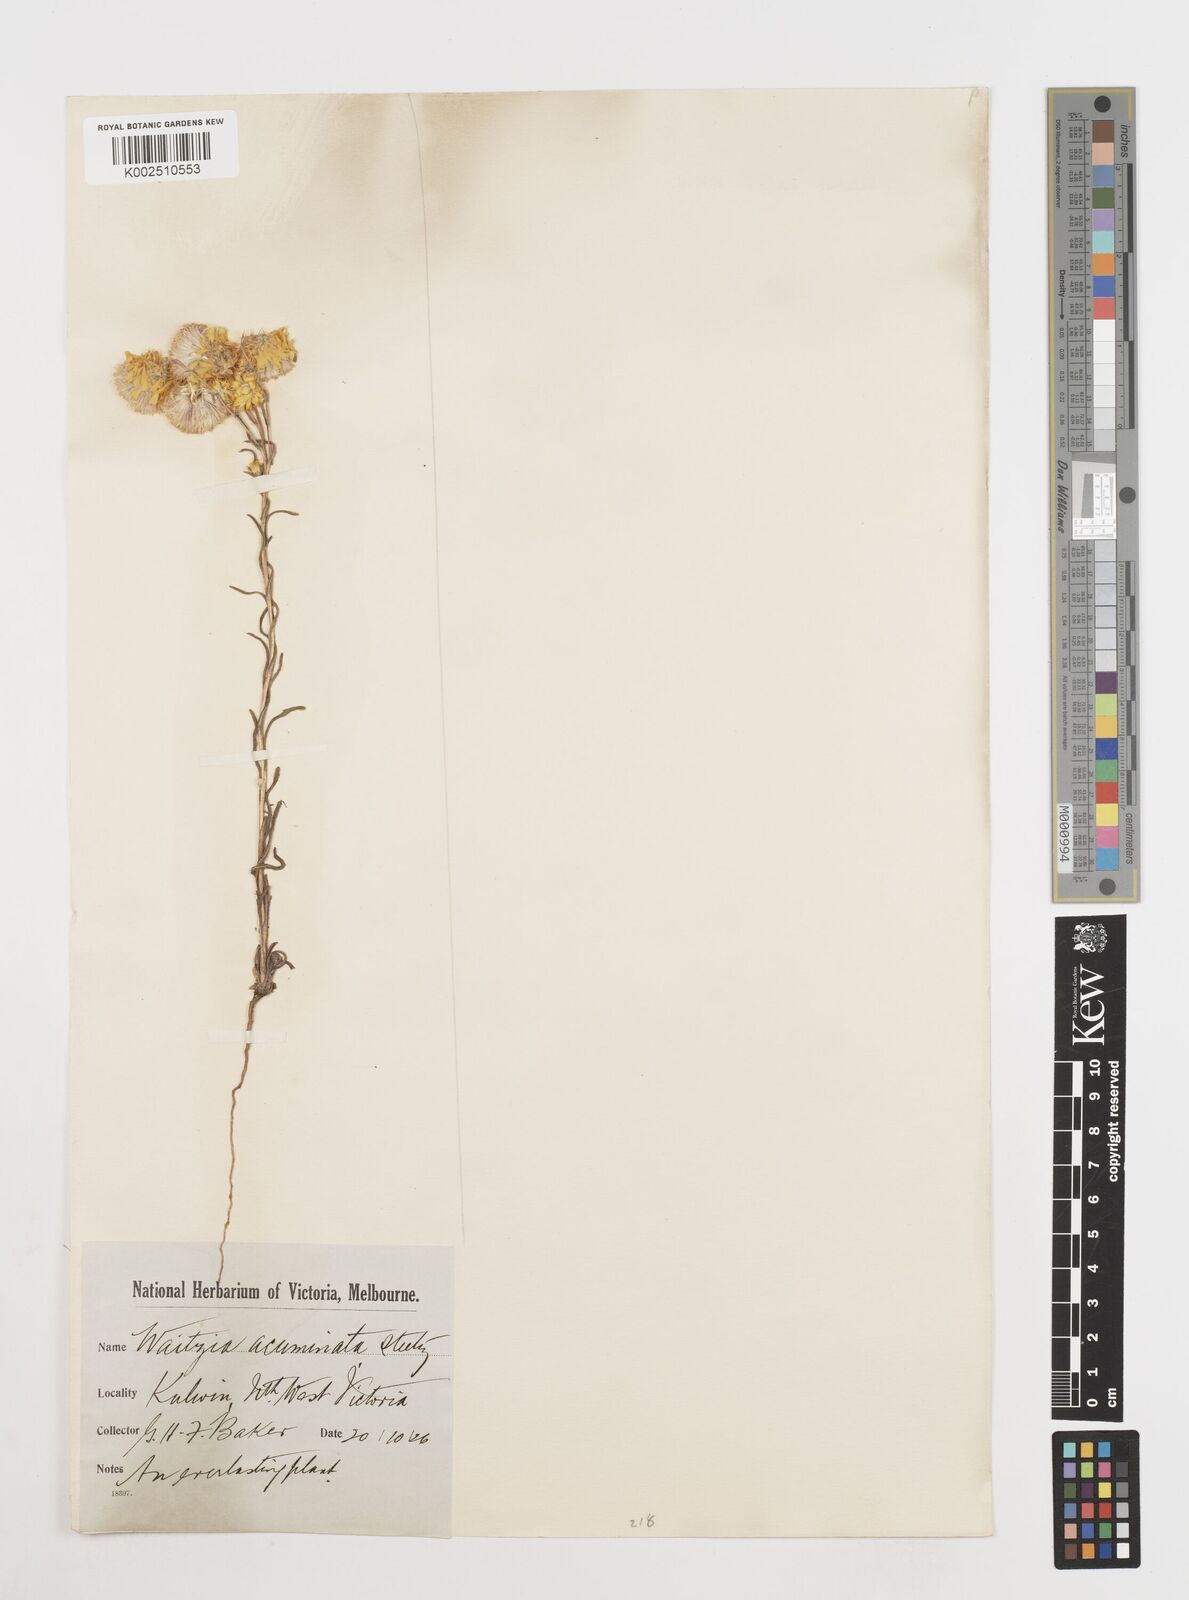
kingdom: Plantae
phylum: Tracheophyta
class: Magnoliopsida
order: Asterales
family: Asteraceae
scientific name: Asteraceae
